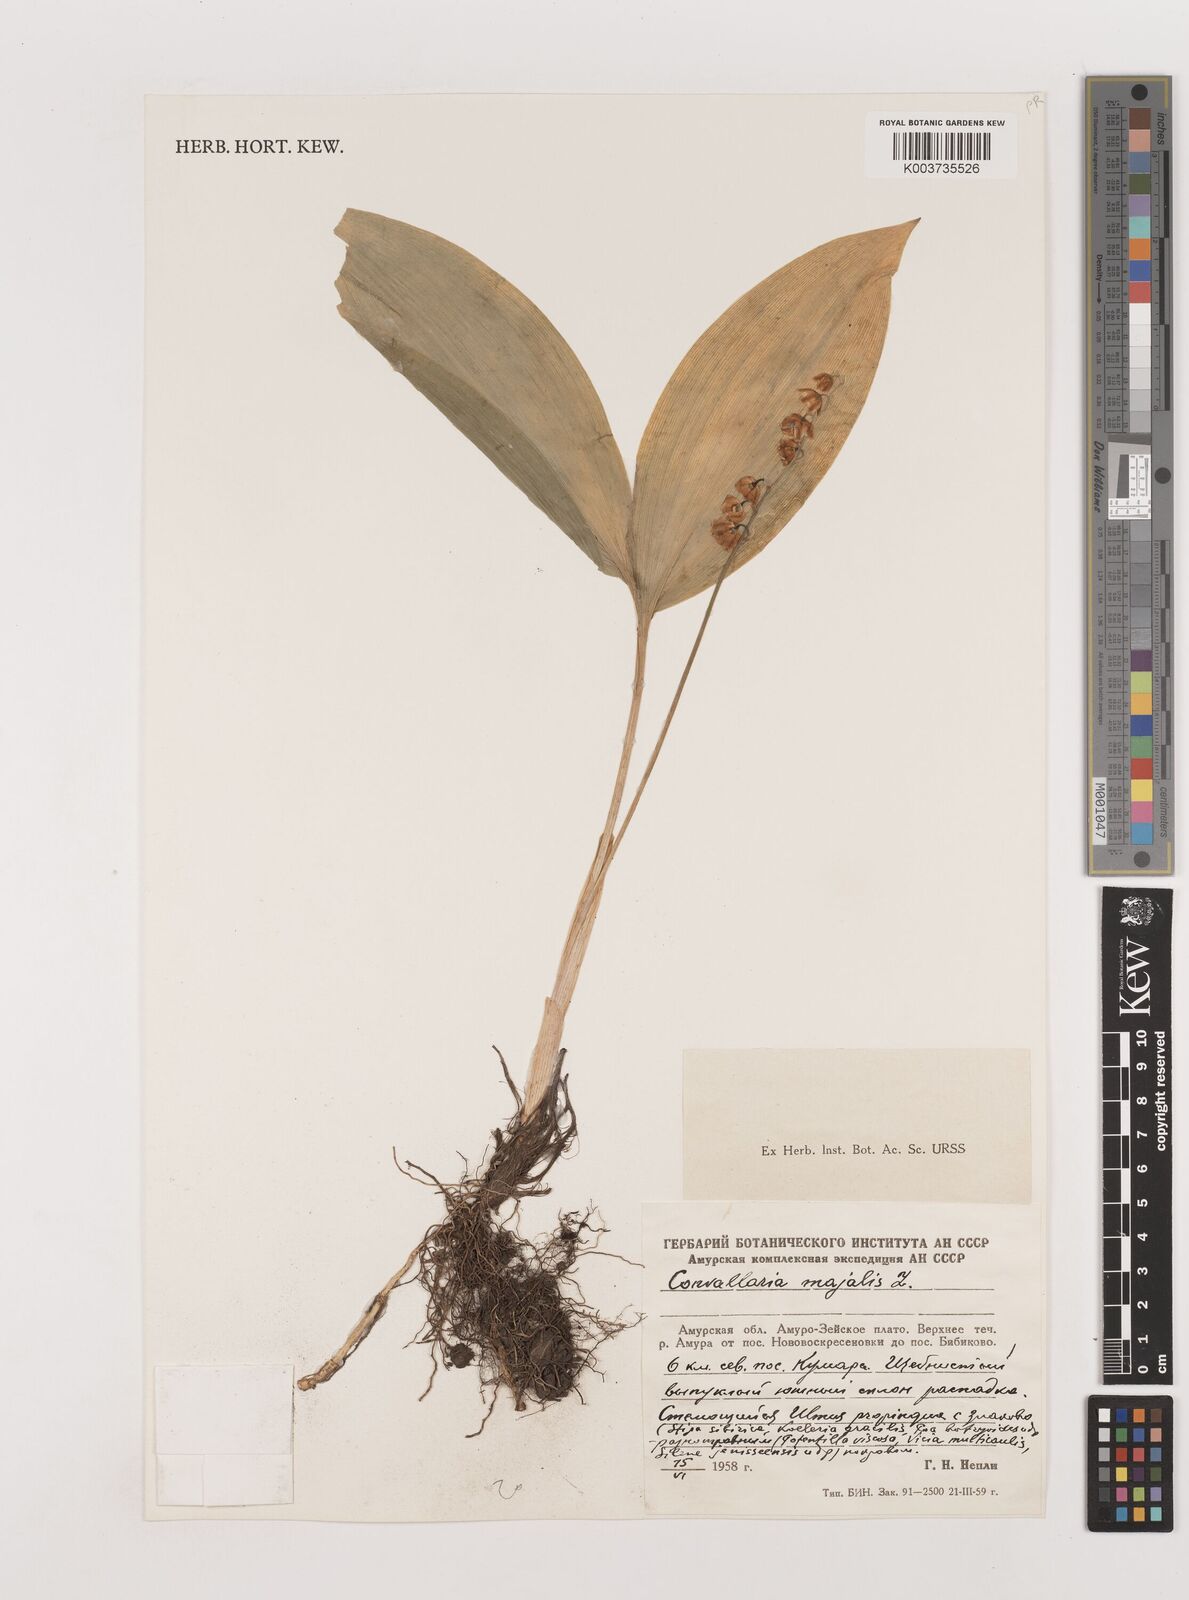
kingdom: Plantae
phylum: Tracheophyta
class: Liliopsida
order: Asparagales
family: Asparagaceae
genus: Convallaria
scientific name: Convallaria majalis
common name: Lily-of-the-valley
